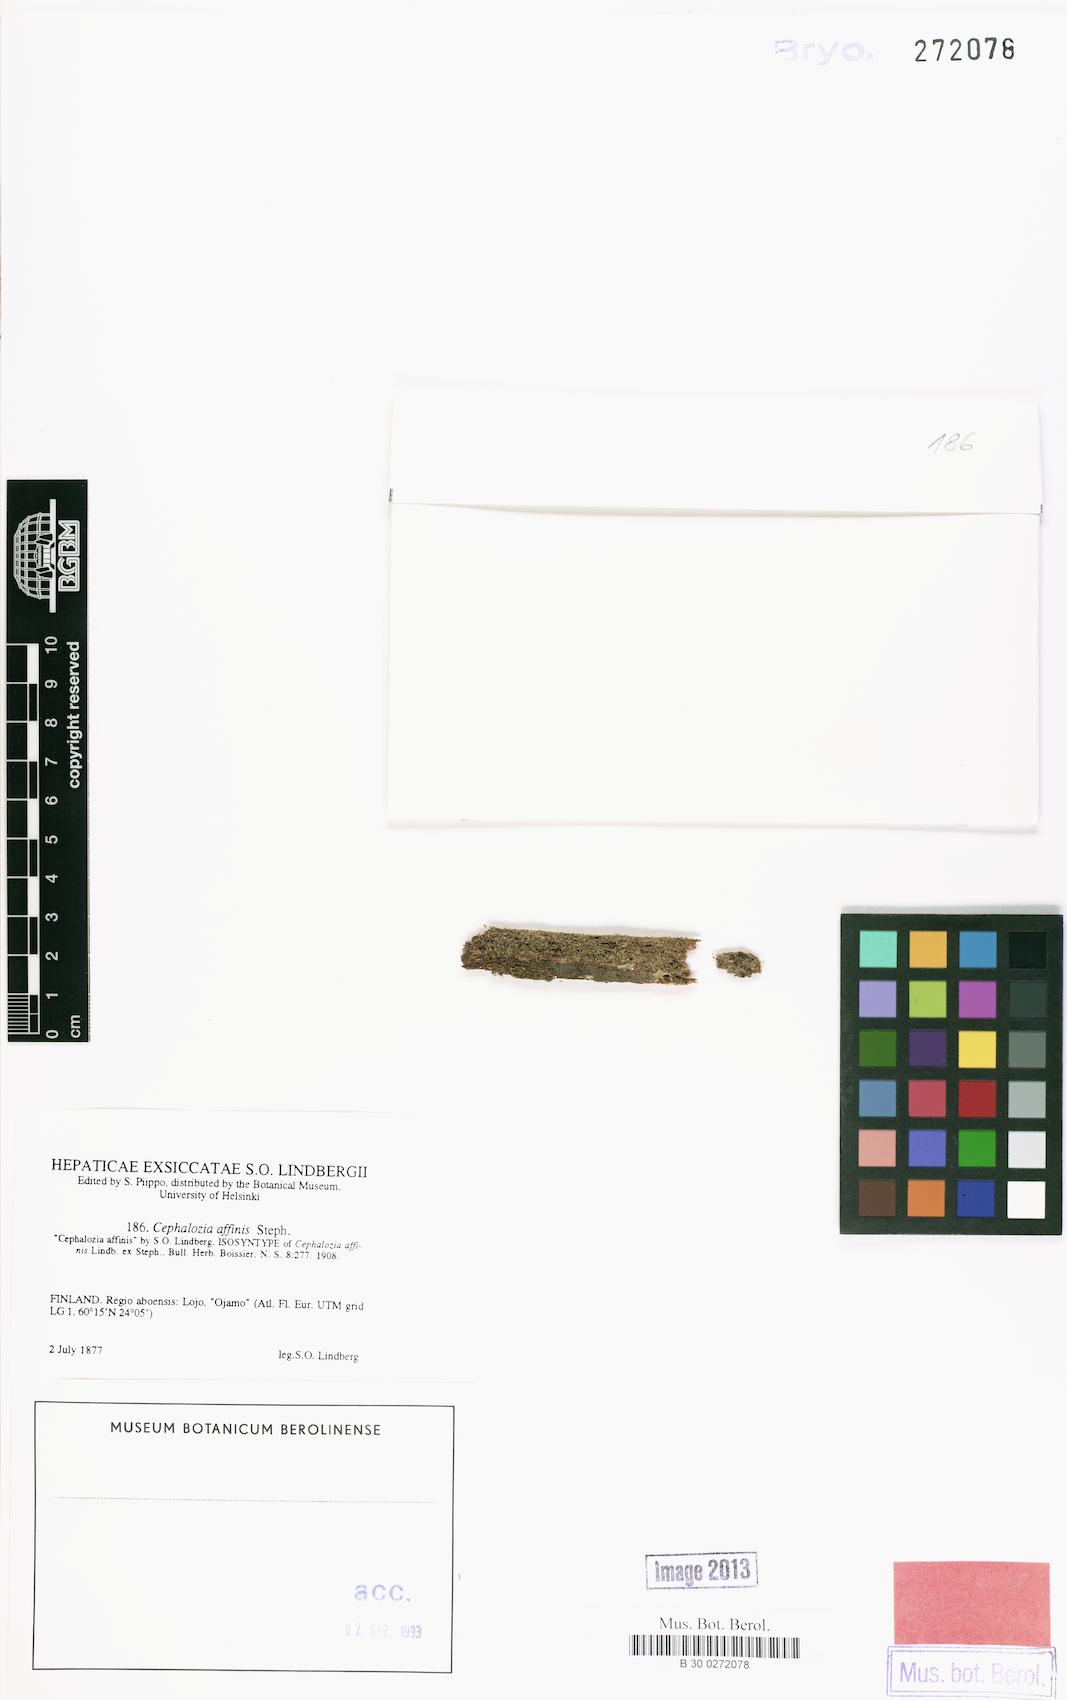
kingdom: Plantae
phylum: Marchantiophyta
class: Jungermanniopsida
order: Jungermanniales
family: Cephaloziaceae
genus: Fuscocephaloziopsis
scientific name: Fuscocephaloziopsis affinis
